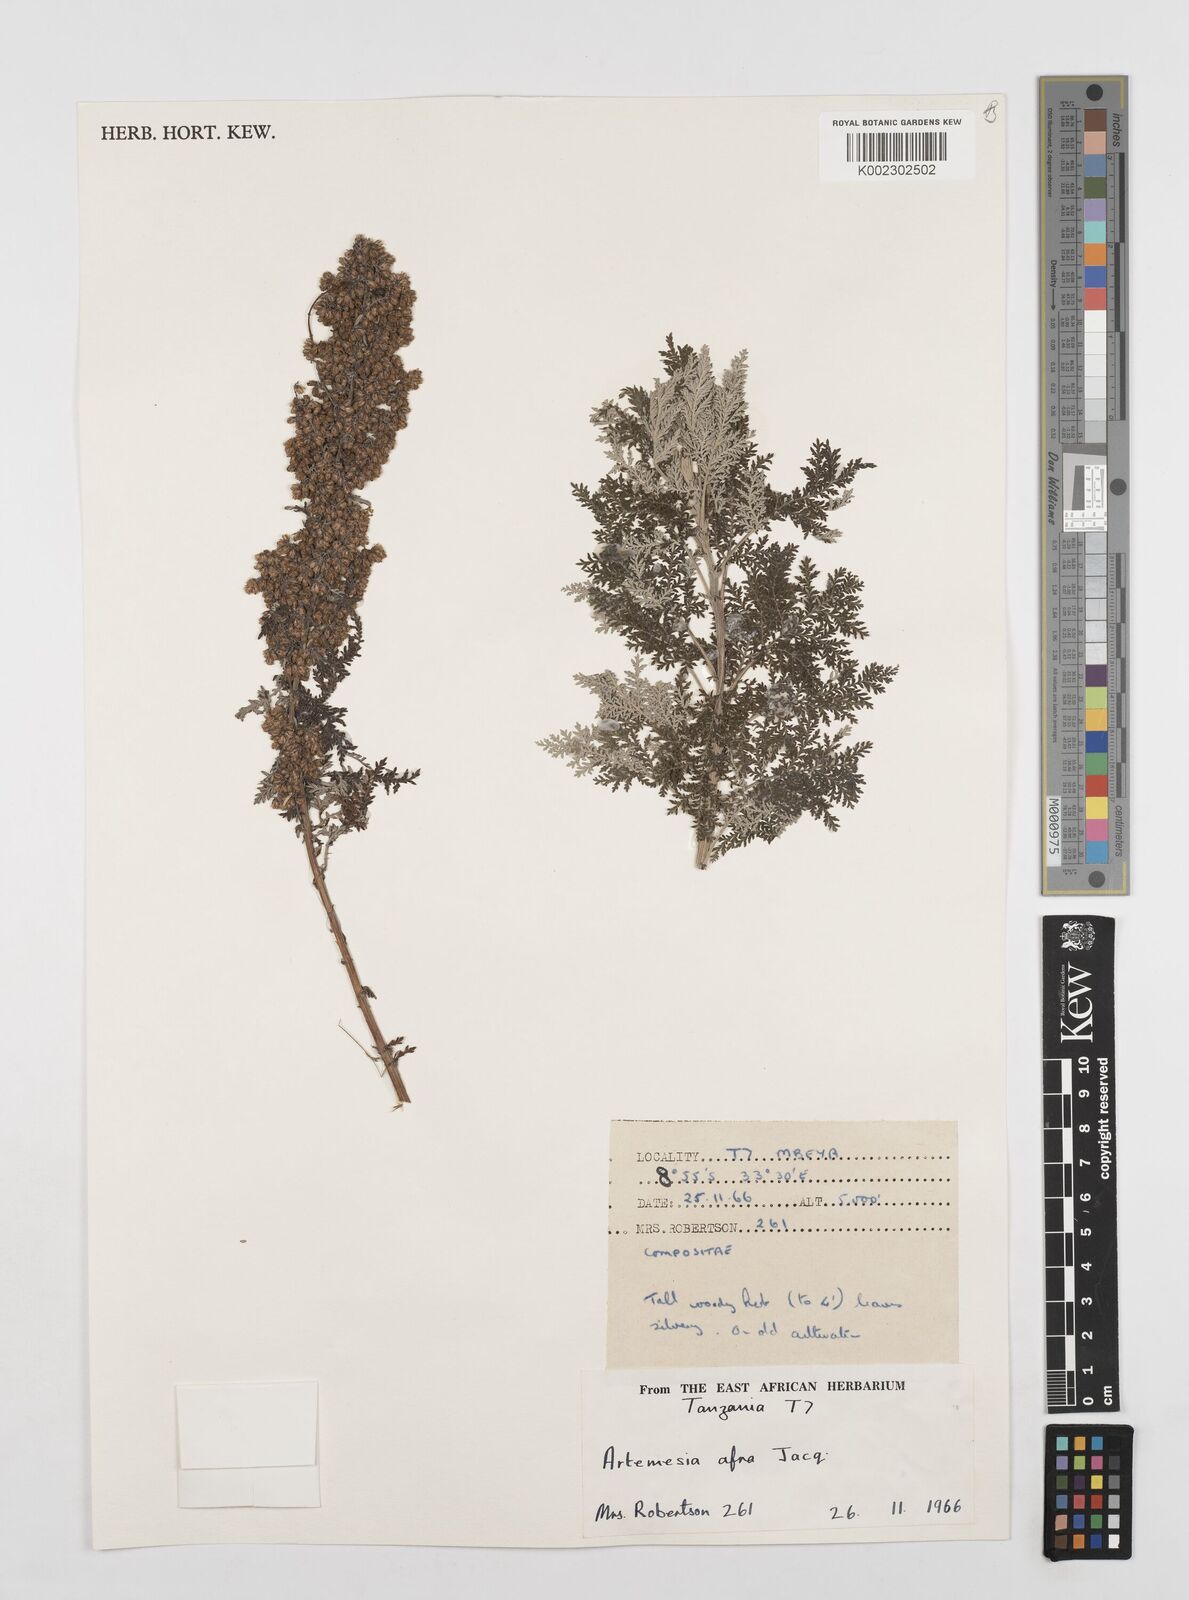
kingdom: Plantae
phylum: Tracheophyta
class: Magnoliopsida
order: Asterales
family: Asteraceae
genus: Artemisia
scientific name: Artemisia afra
